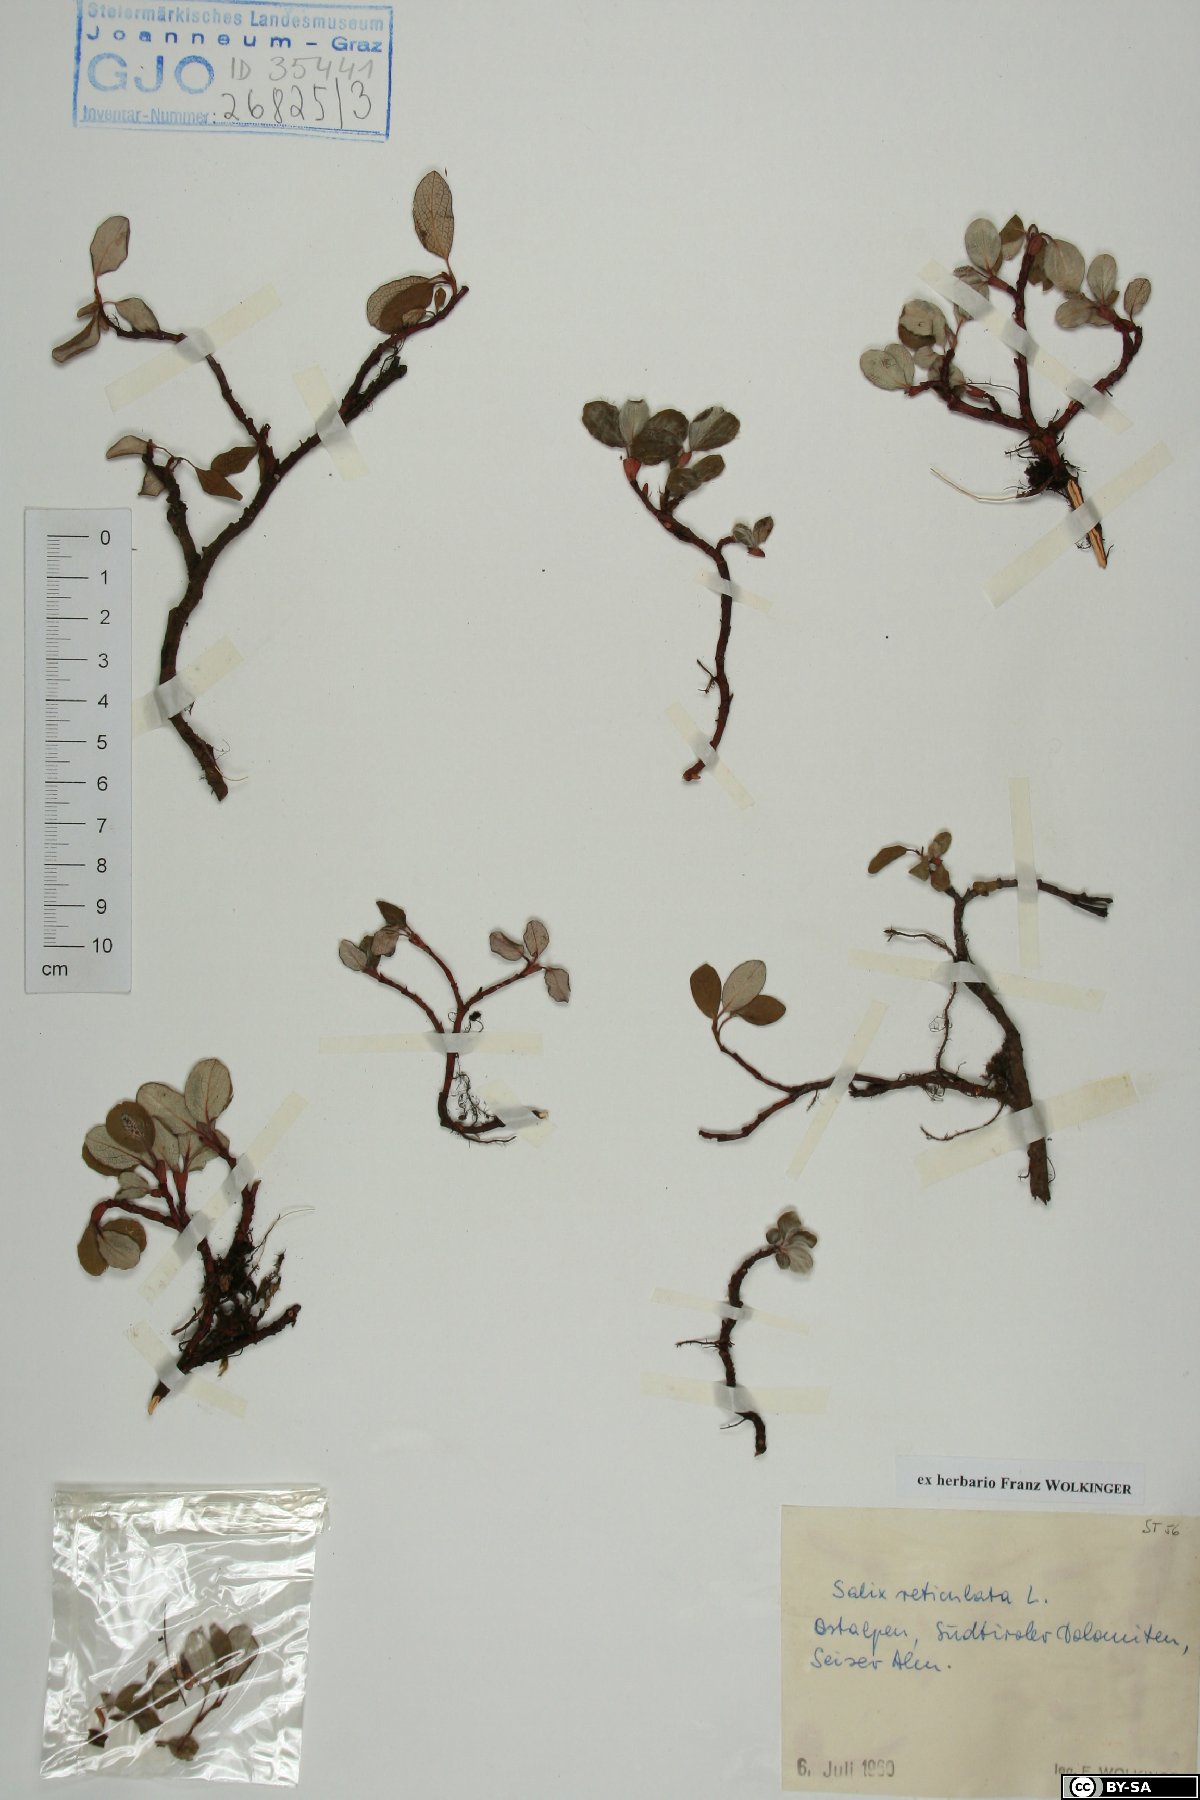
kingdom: Plantae
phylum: Tracheophyta
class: Magnoliopsida
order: Malpighiales
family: Salicaceae
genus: Salix
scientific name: Salix reticulata
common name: Net-leaved willow
